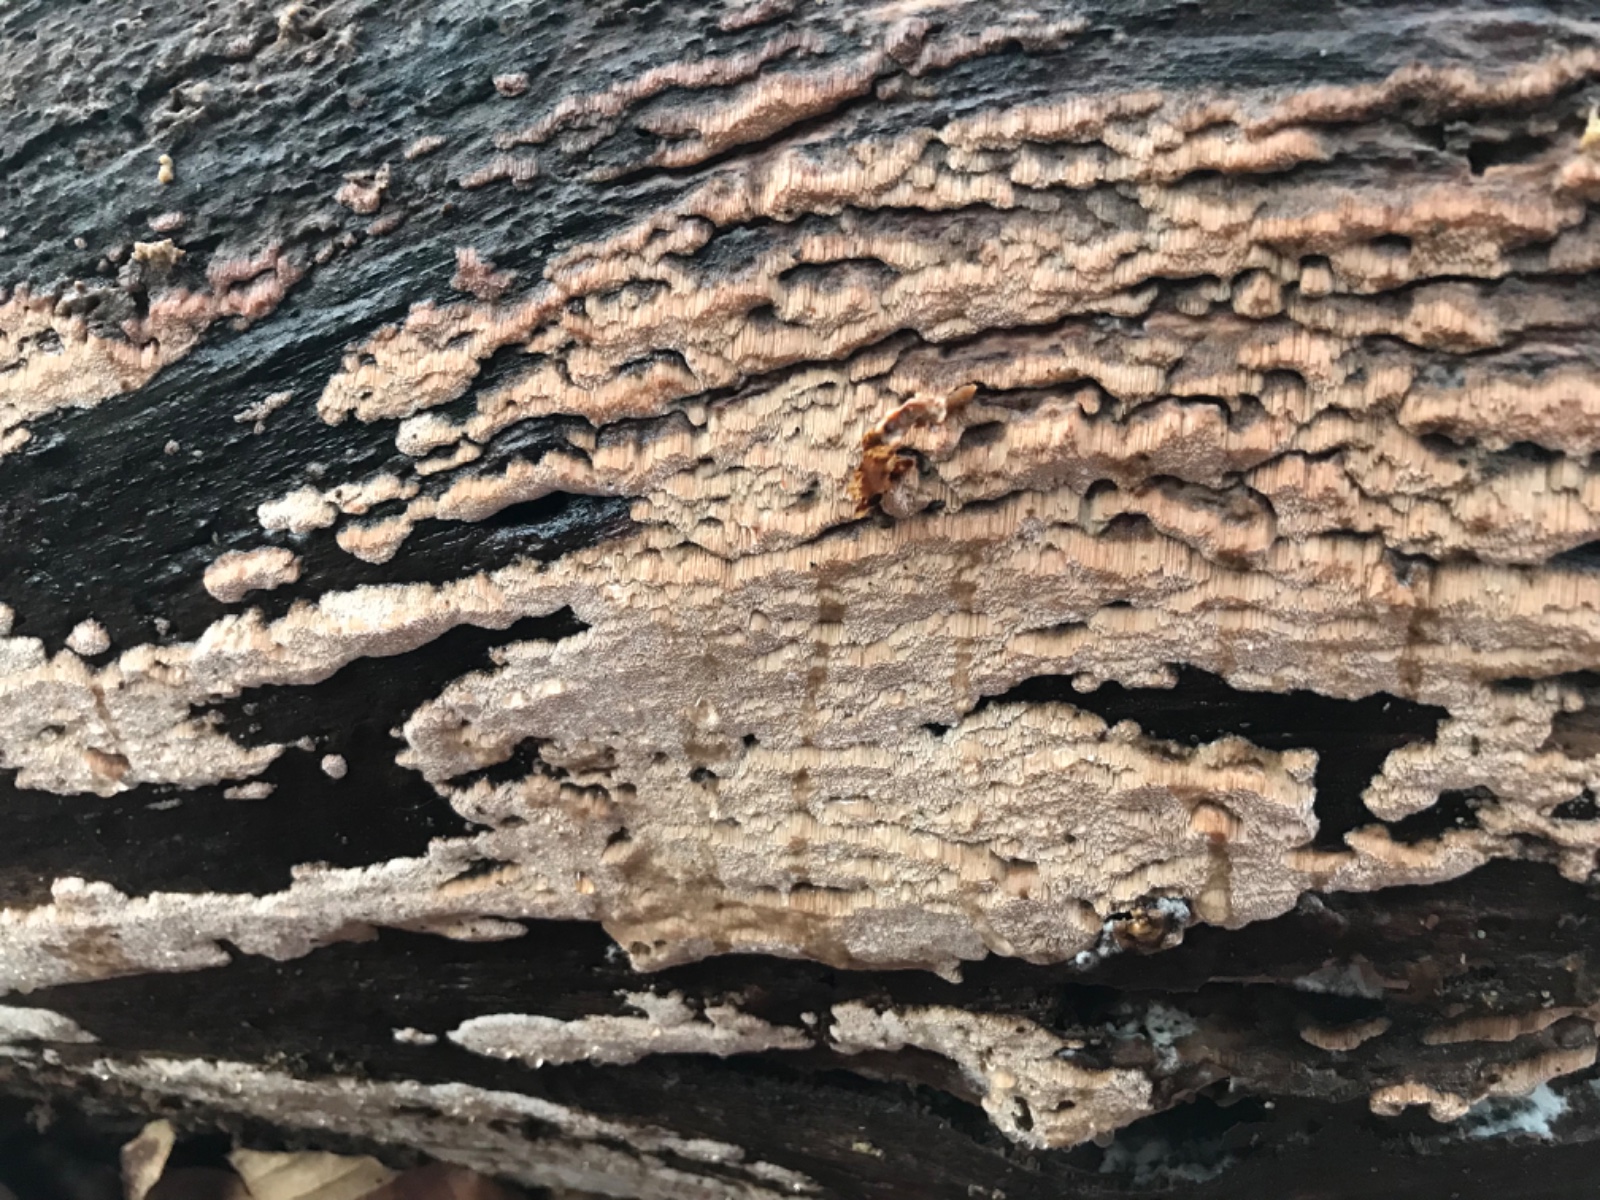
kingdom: Fungi
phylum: Basidiomycota
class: Agaricomycetes
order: Polyporales
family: Meruliaceae
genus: Mycoacia
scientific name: Mycoacia gilvescens
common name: rosa pastelporesvamp
